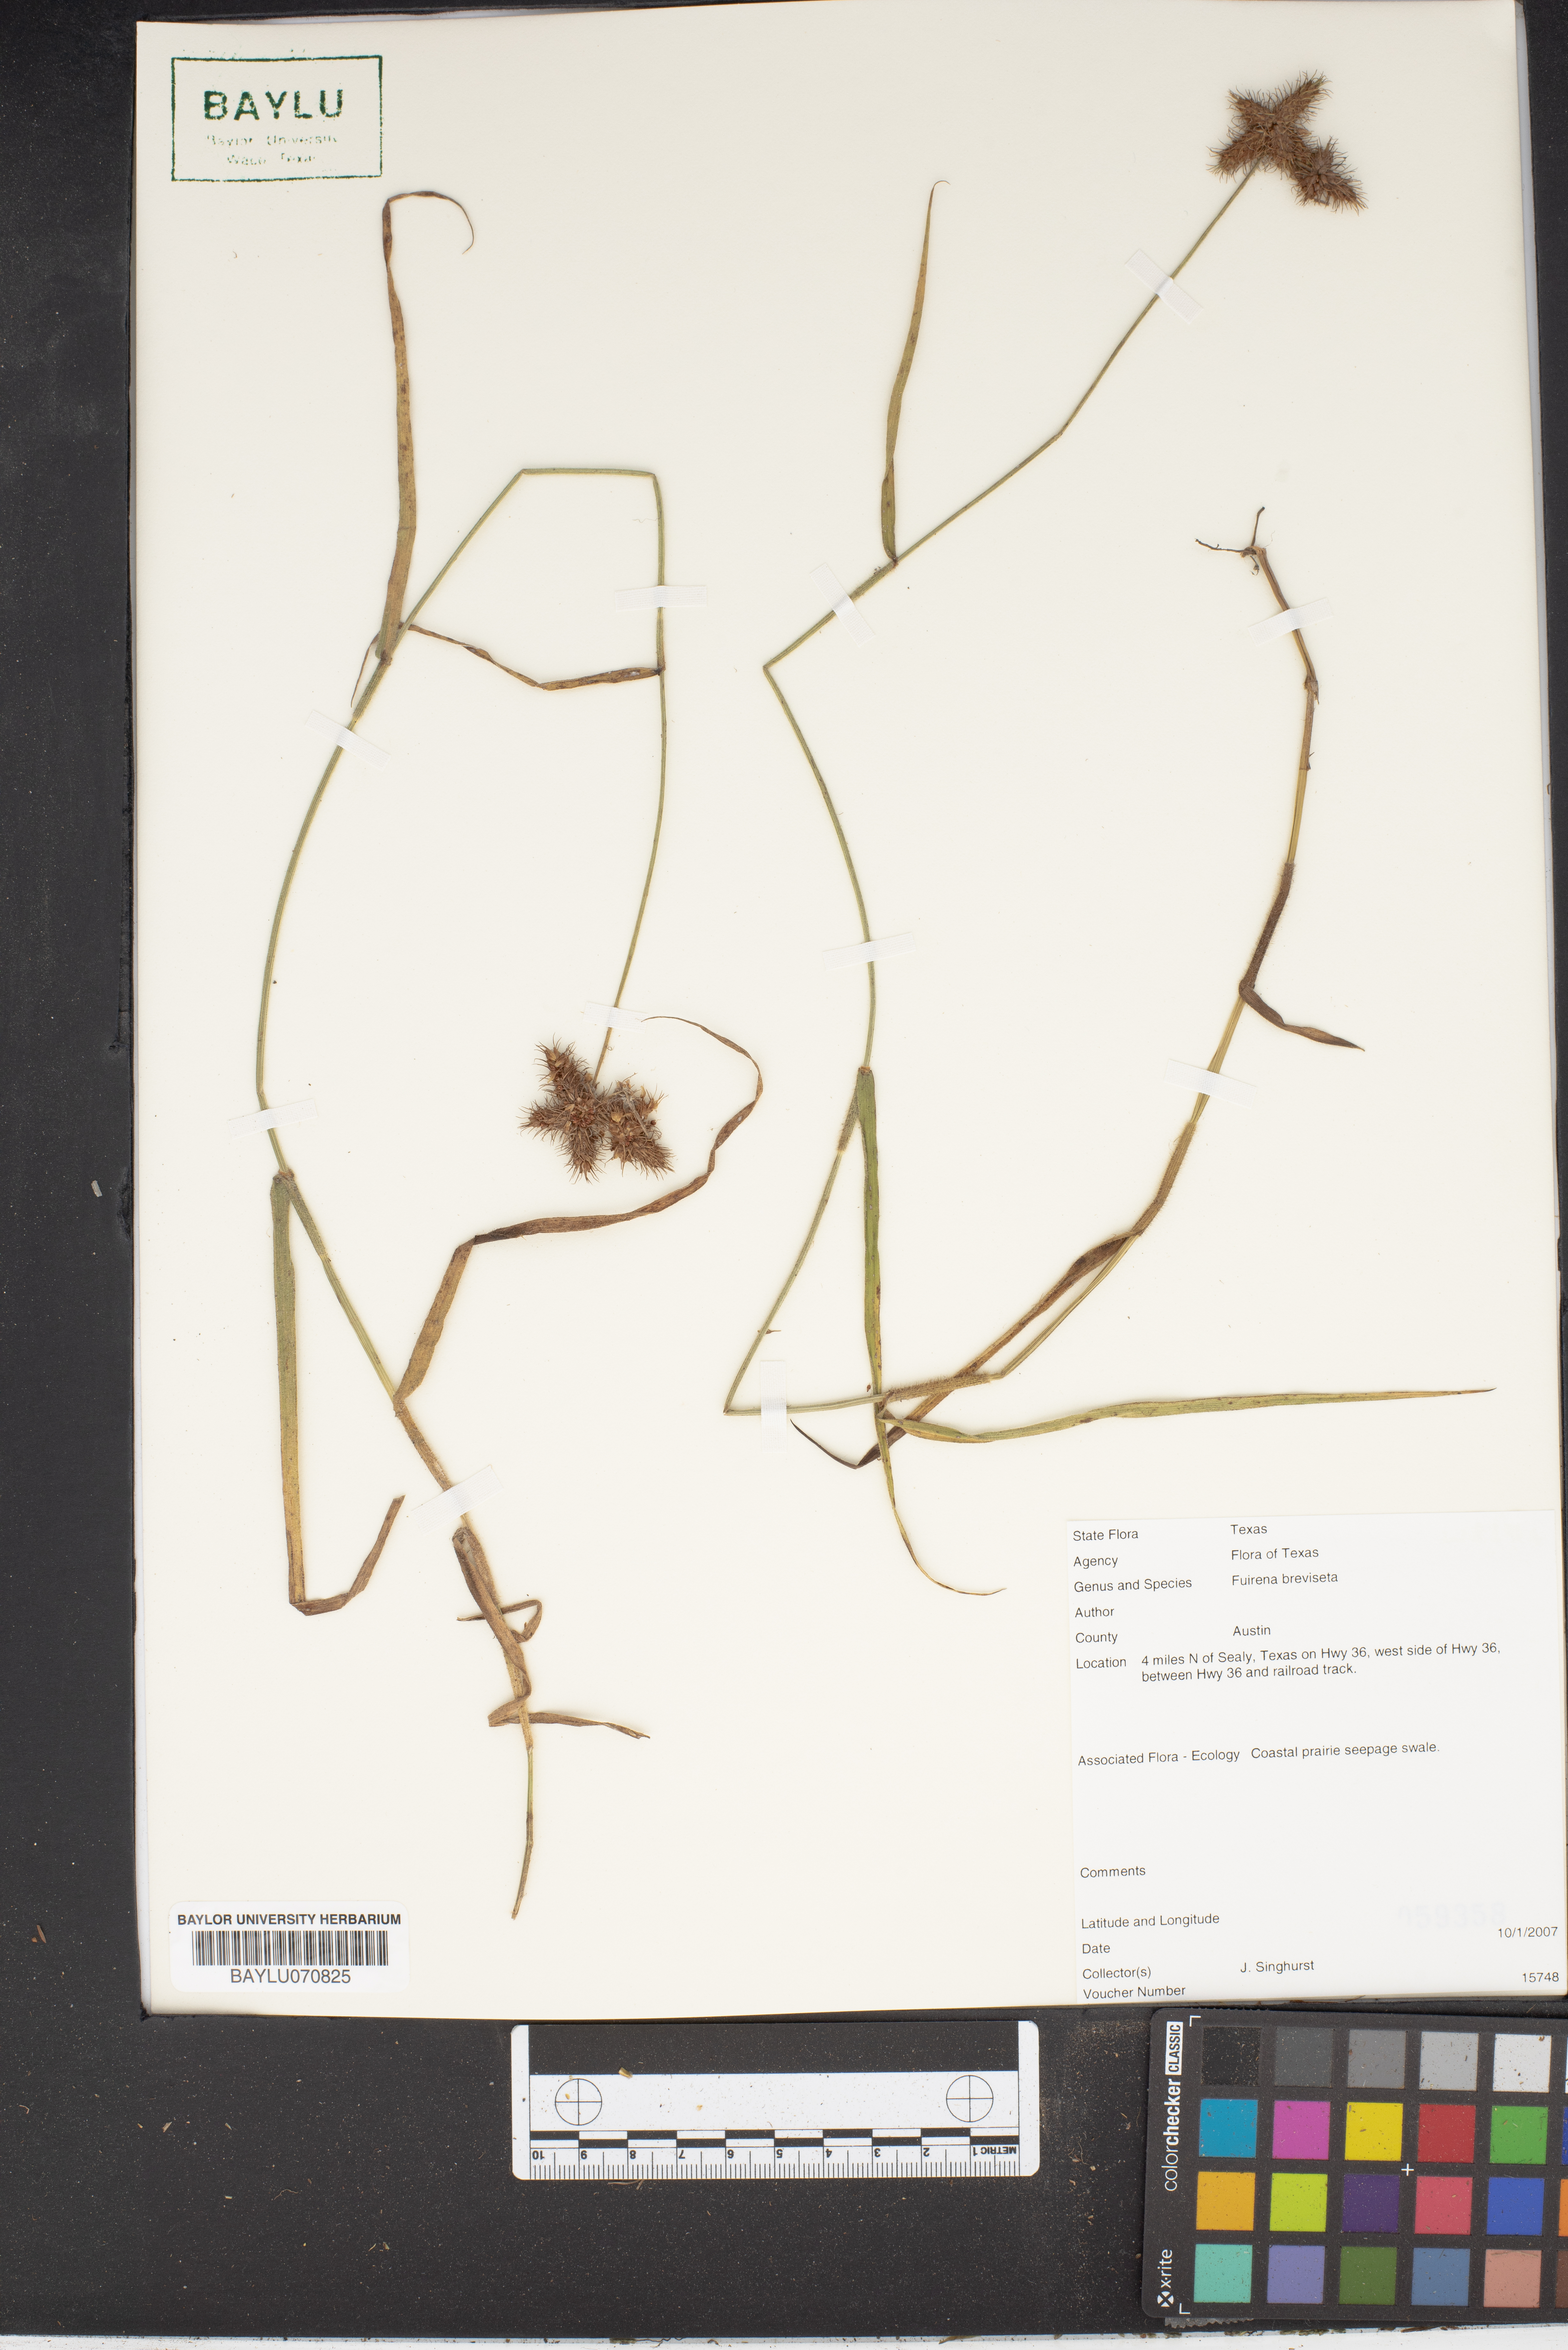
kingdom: Plantae
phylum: Tracheophyta
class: Liliopsida
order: Poales
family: Cyperaceae
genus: Fuirena
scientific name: Fuirena breviseta
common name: Saltmarsh umbrella sedge
